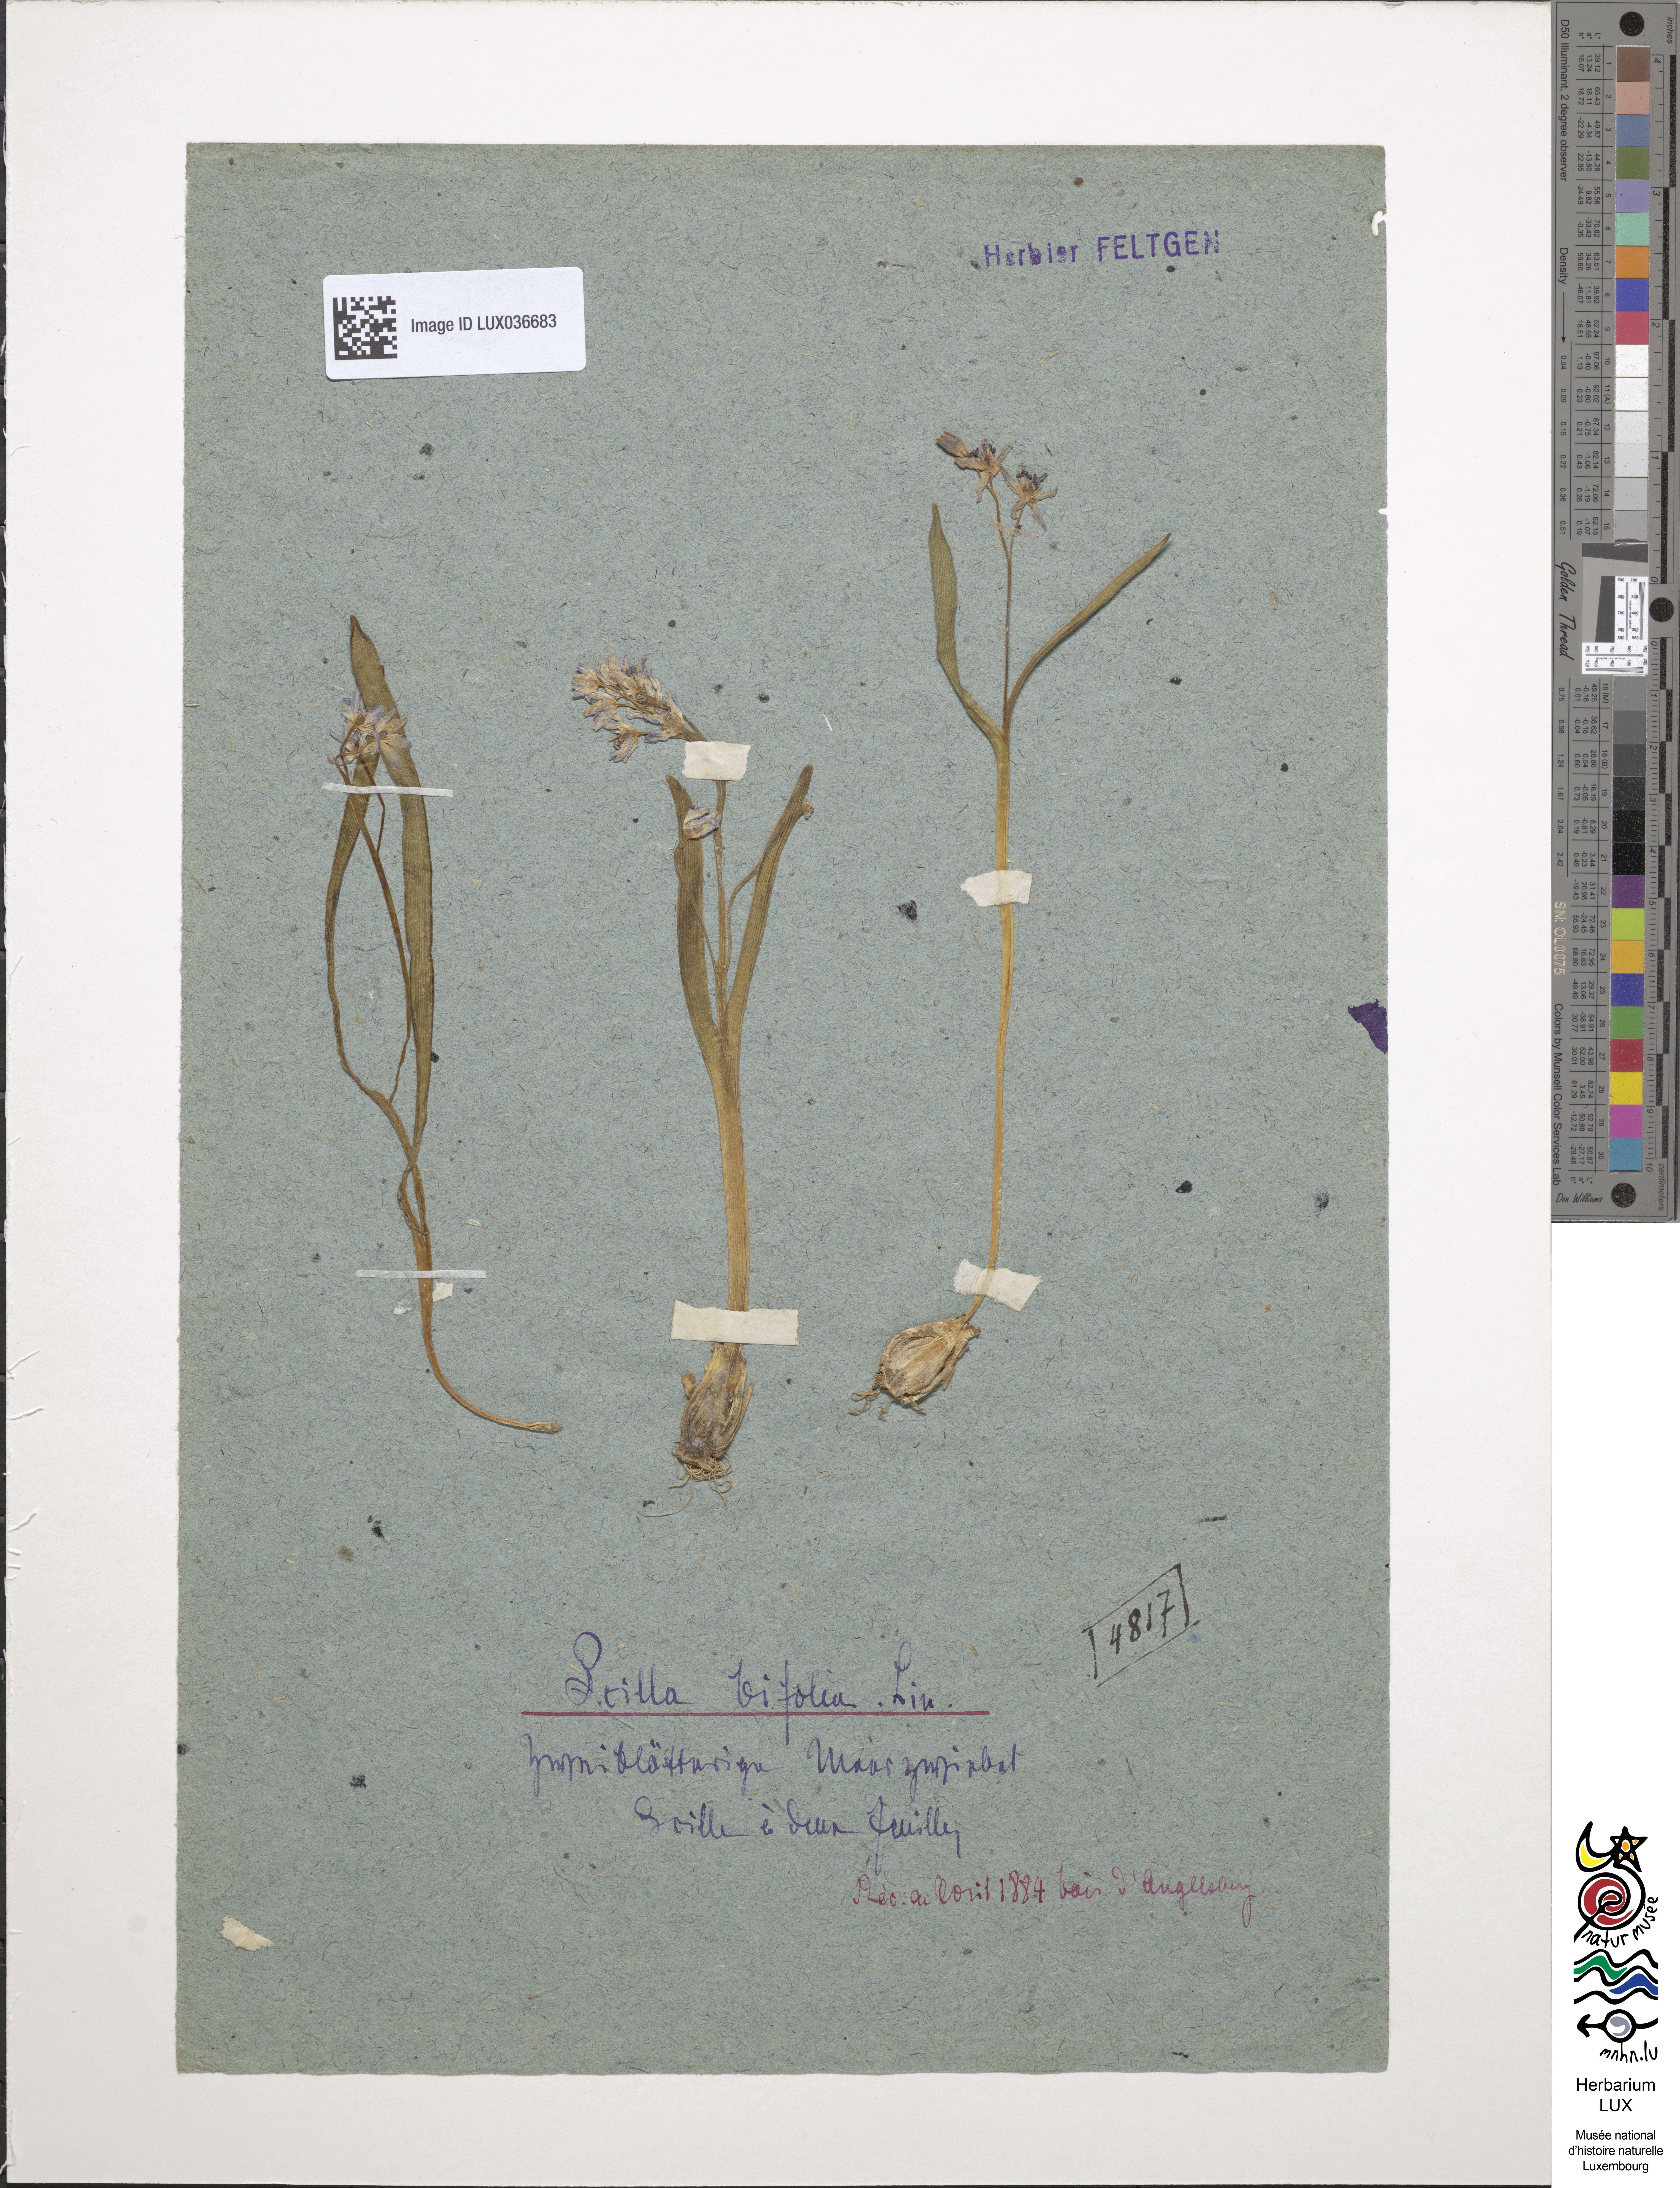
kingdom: Plantae
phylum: Tracheophyta
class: Liliopsida
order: Asparagales
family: Asparagaceae
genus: Scilla
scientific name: Scilla bifolia
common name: Alpine squill
